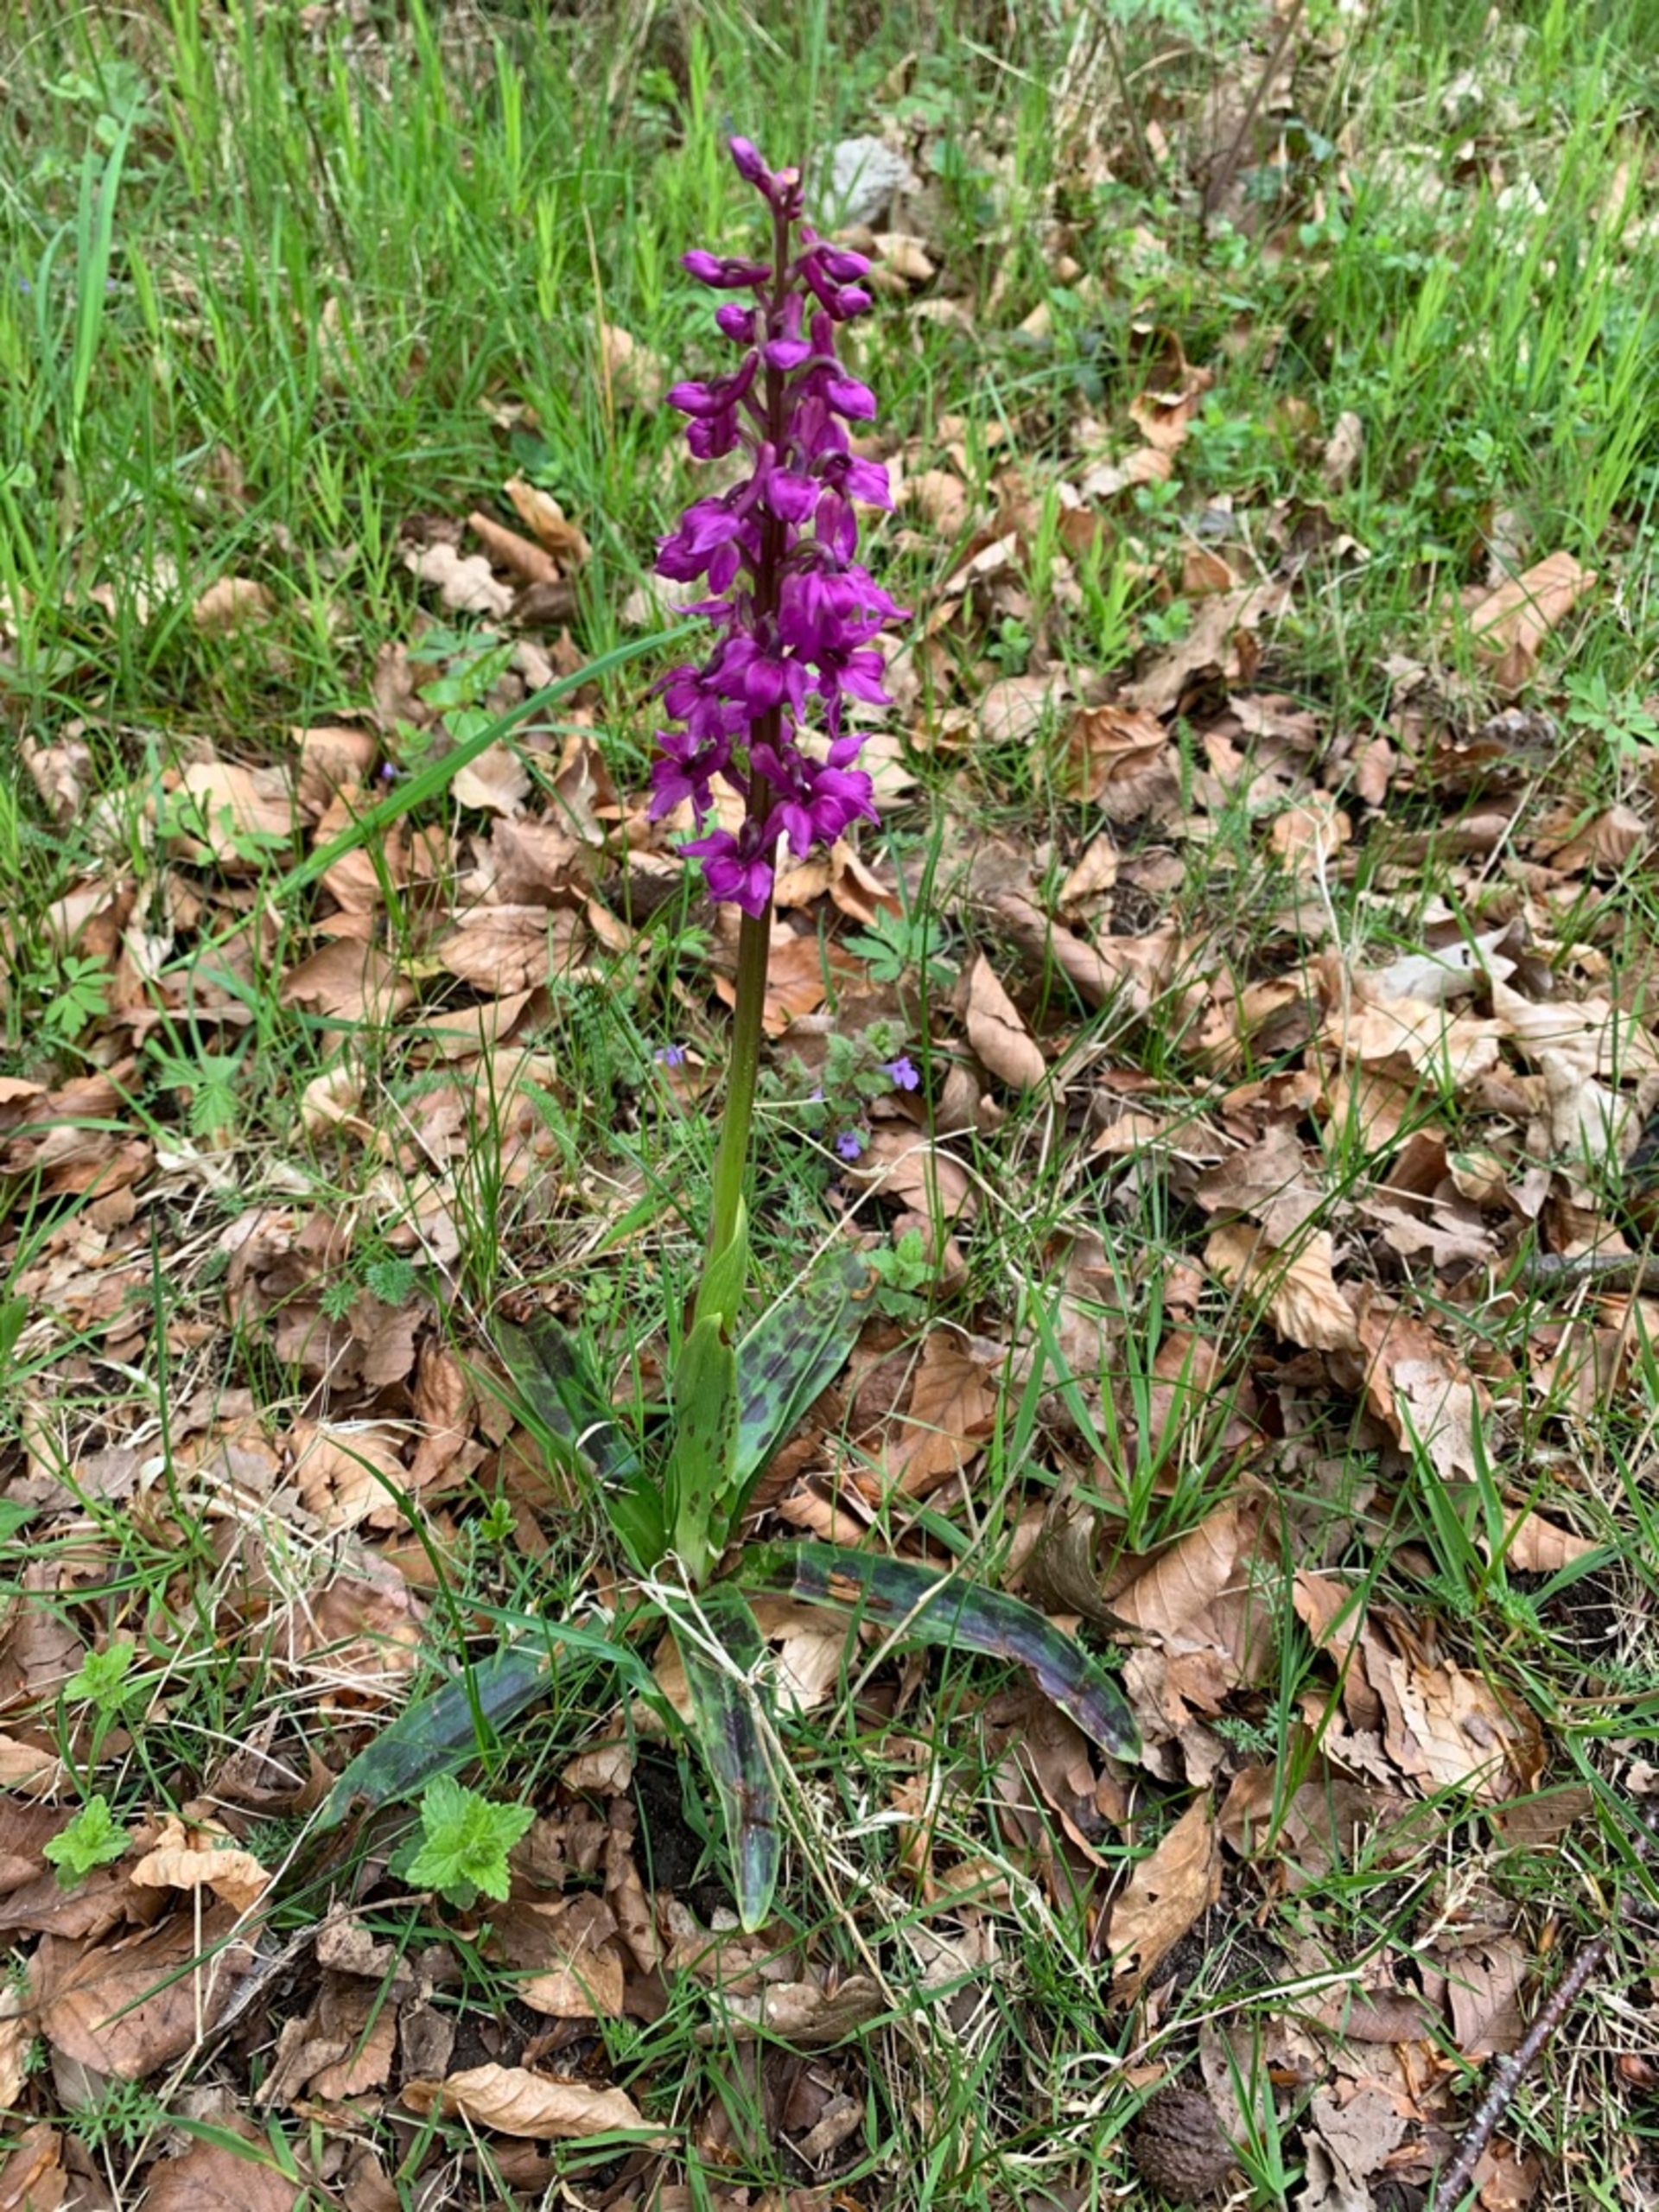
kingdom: Plantae
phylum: Tracheophyta
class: Liliopsida
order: Asparagales
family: Orchidaceae
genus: Orchis
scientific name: Orchis mascula
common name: Tyndakset gøgeurt
